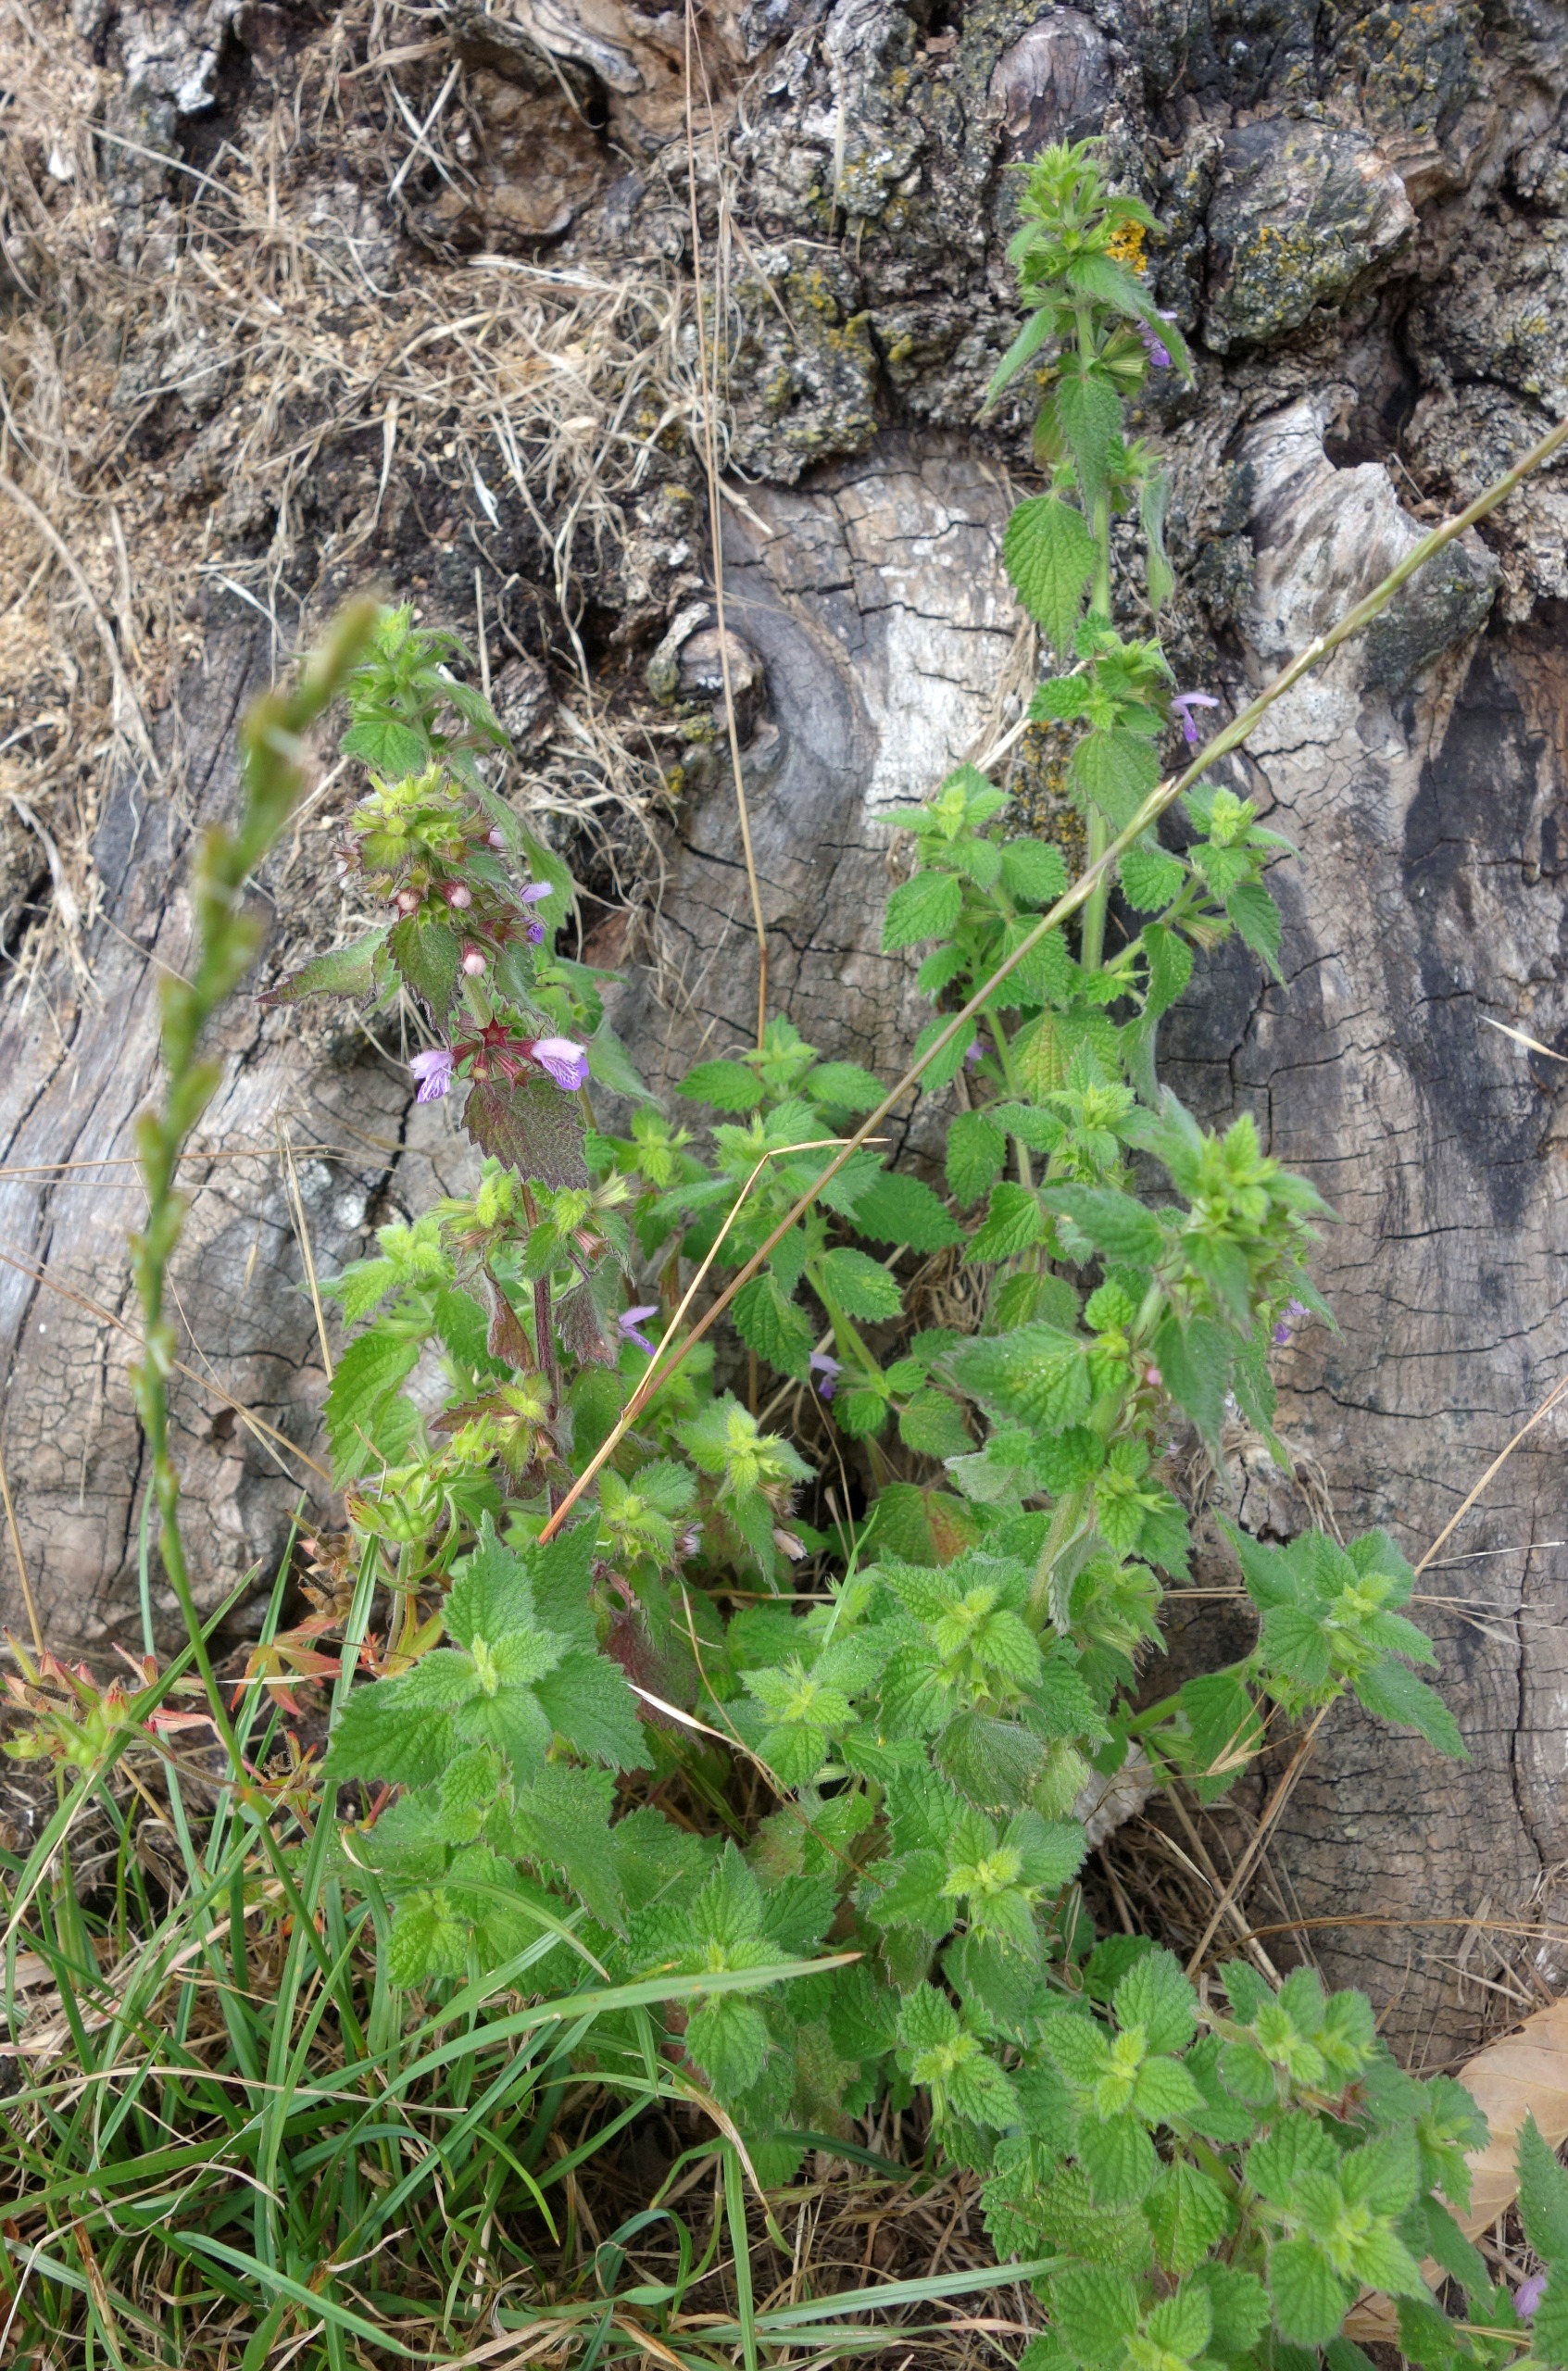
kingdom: Plantae
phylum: Tracheophyta
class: Magnoliopsida
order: Lamiales
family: Lamiaceae
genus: Ballota
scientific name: Ballota nigra
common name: Tandbæger
